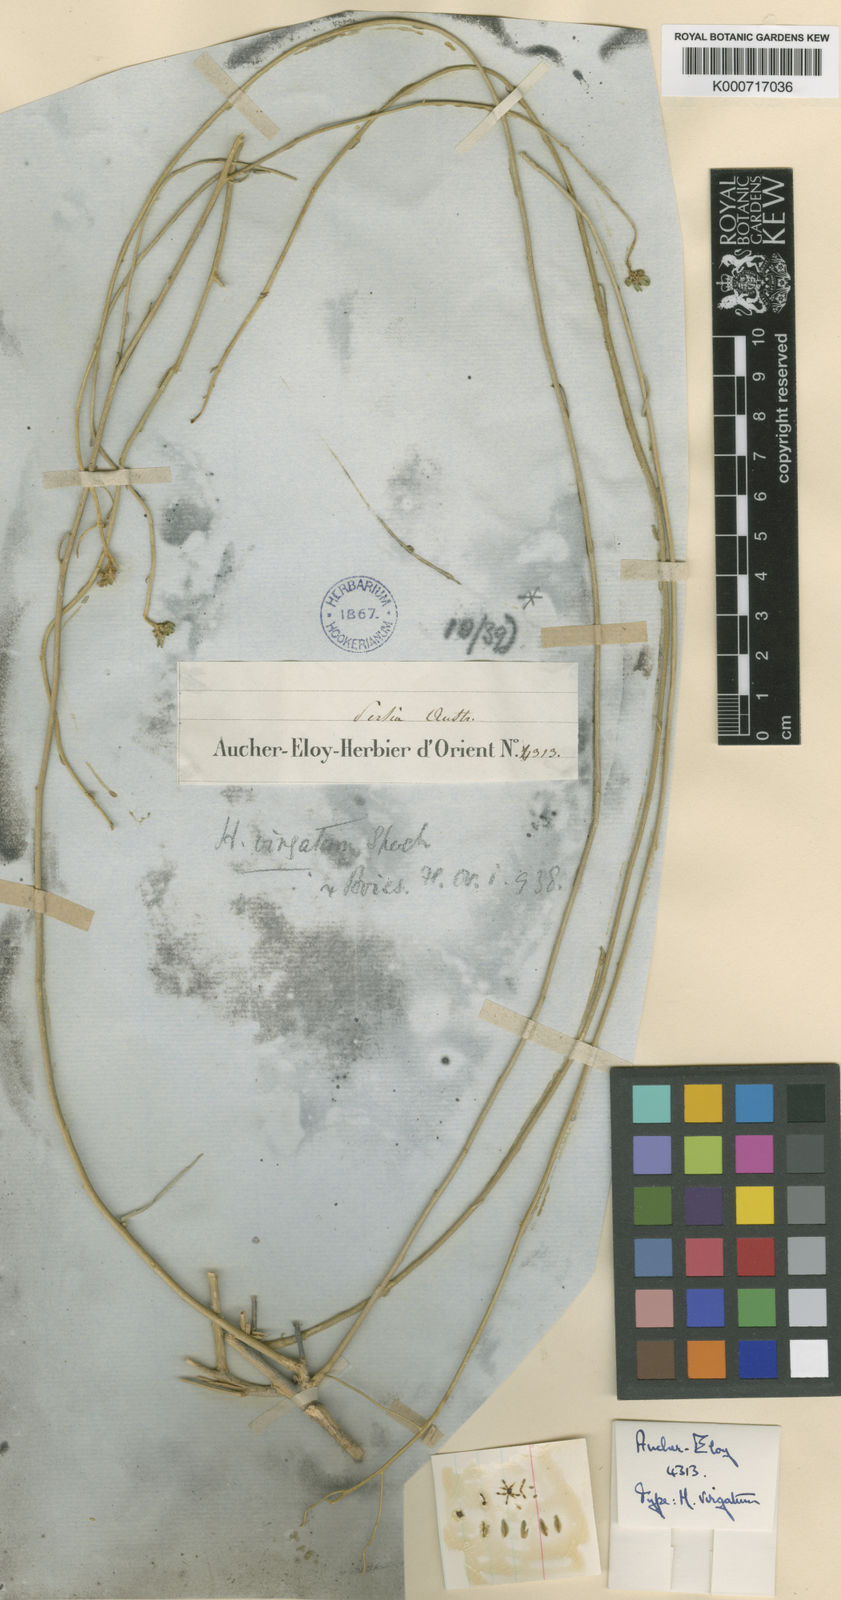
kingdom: Plantae
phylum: Tracheophyta
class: Magnoliopsida
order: Sapindales
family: Rutaceae
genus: Haplophyllum
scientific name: Haplophyllum canaliculatum
